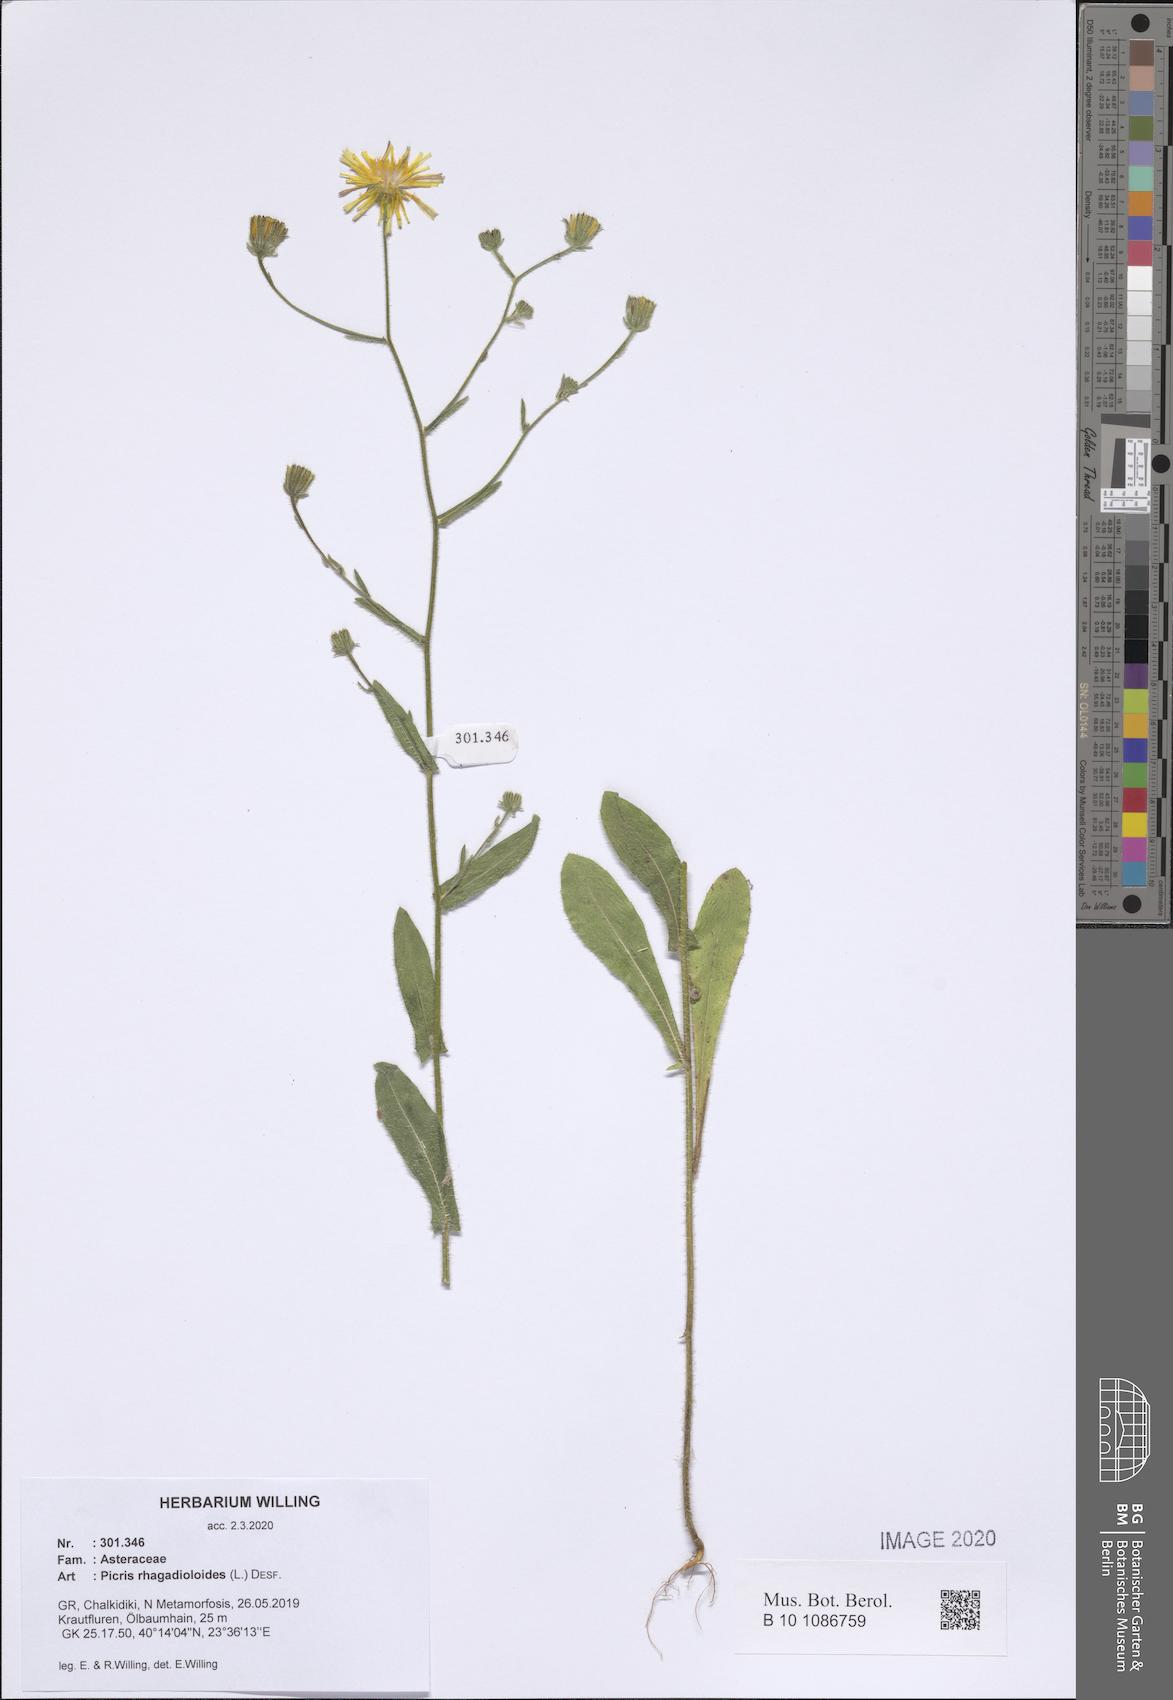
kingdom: Plantae
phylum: Tracheophyta
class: Magnoliopsida
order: Asterales
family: Asteraceae
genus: Picris
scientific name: Picris rhagadioloides
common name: Oxtongue
